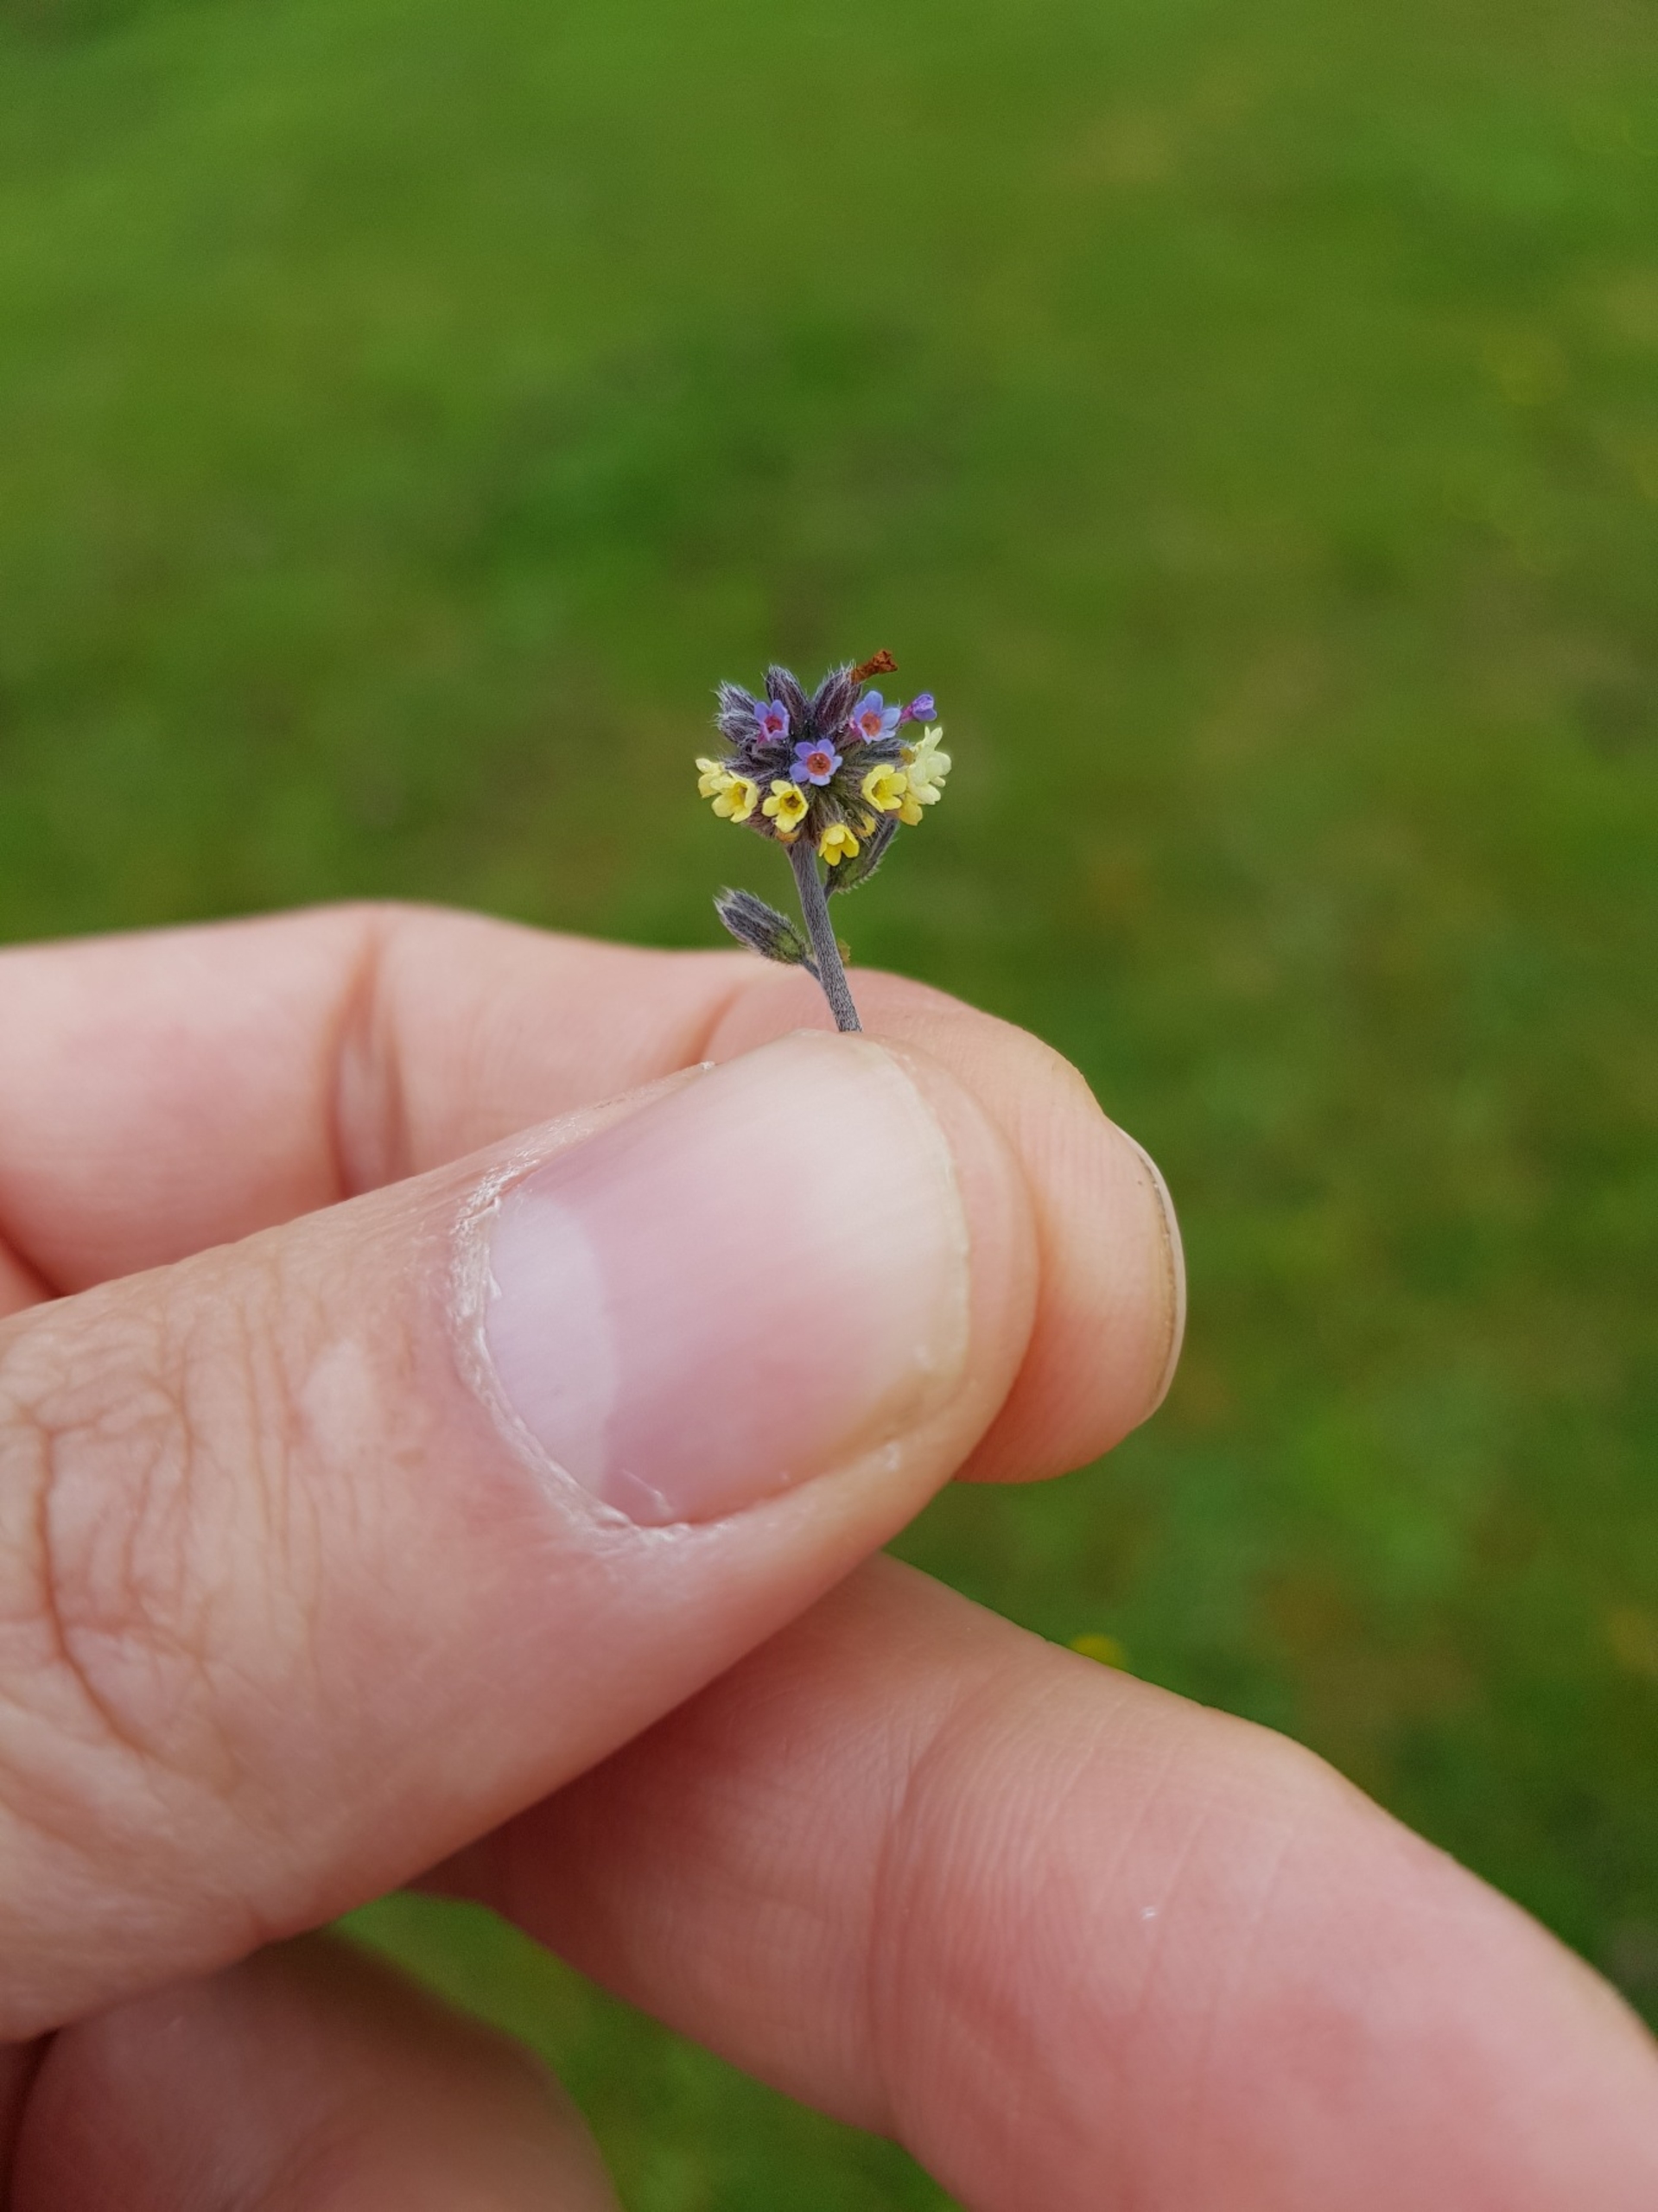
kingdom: Plantae
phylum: Tracheophyta
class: Magnoliopsida
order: Boraginales
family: Boraginaceae
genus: Myosotis
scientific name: Myosotis discolor
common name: Forskelligfarvet forglemmigej
